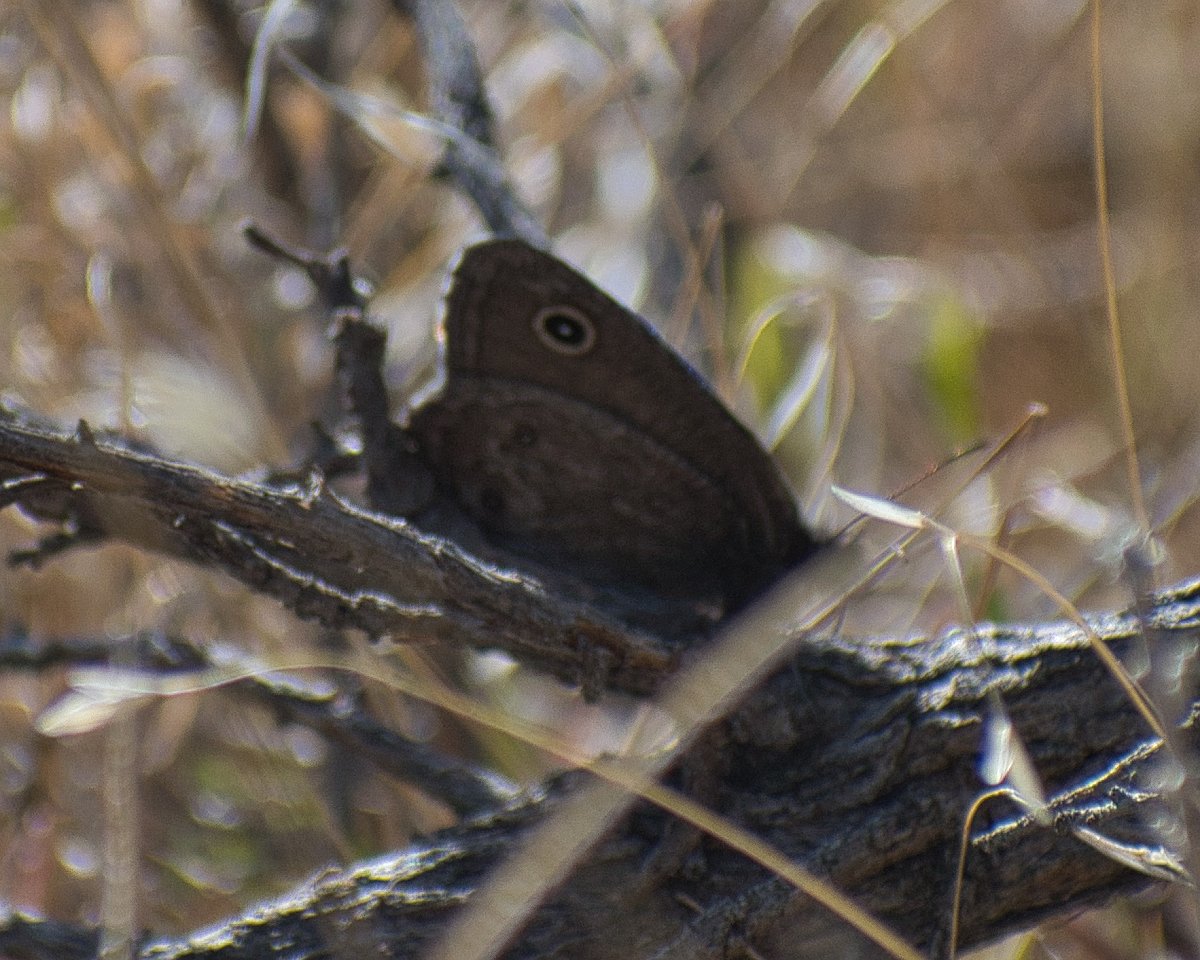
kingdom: Animalia
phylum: Arthropoda
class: Insecta
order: Lepidoptera
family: Nymphalidae
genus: Cercyonis
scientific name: Cercyonis pegala
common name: Common Wood-Nymph
